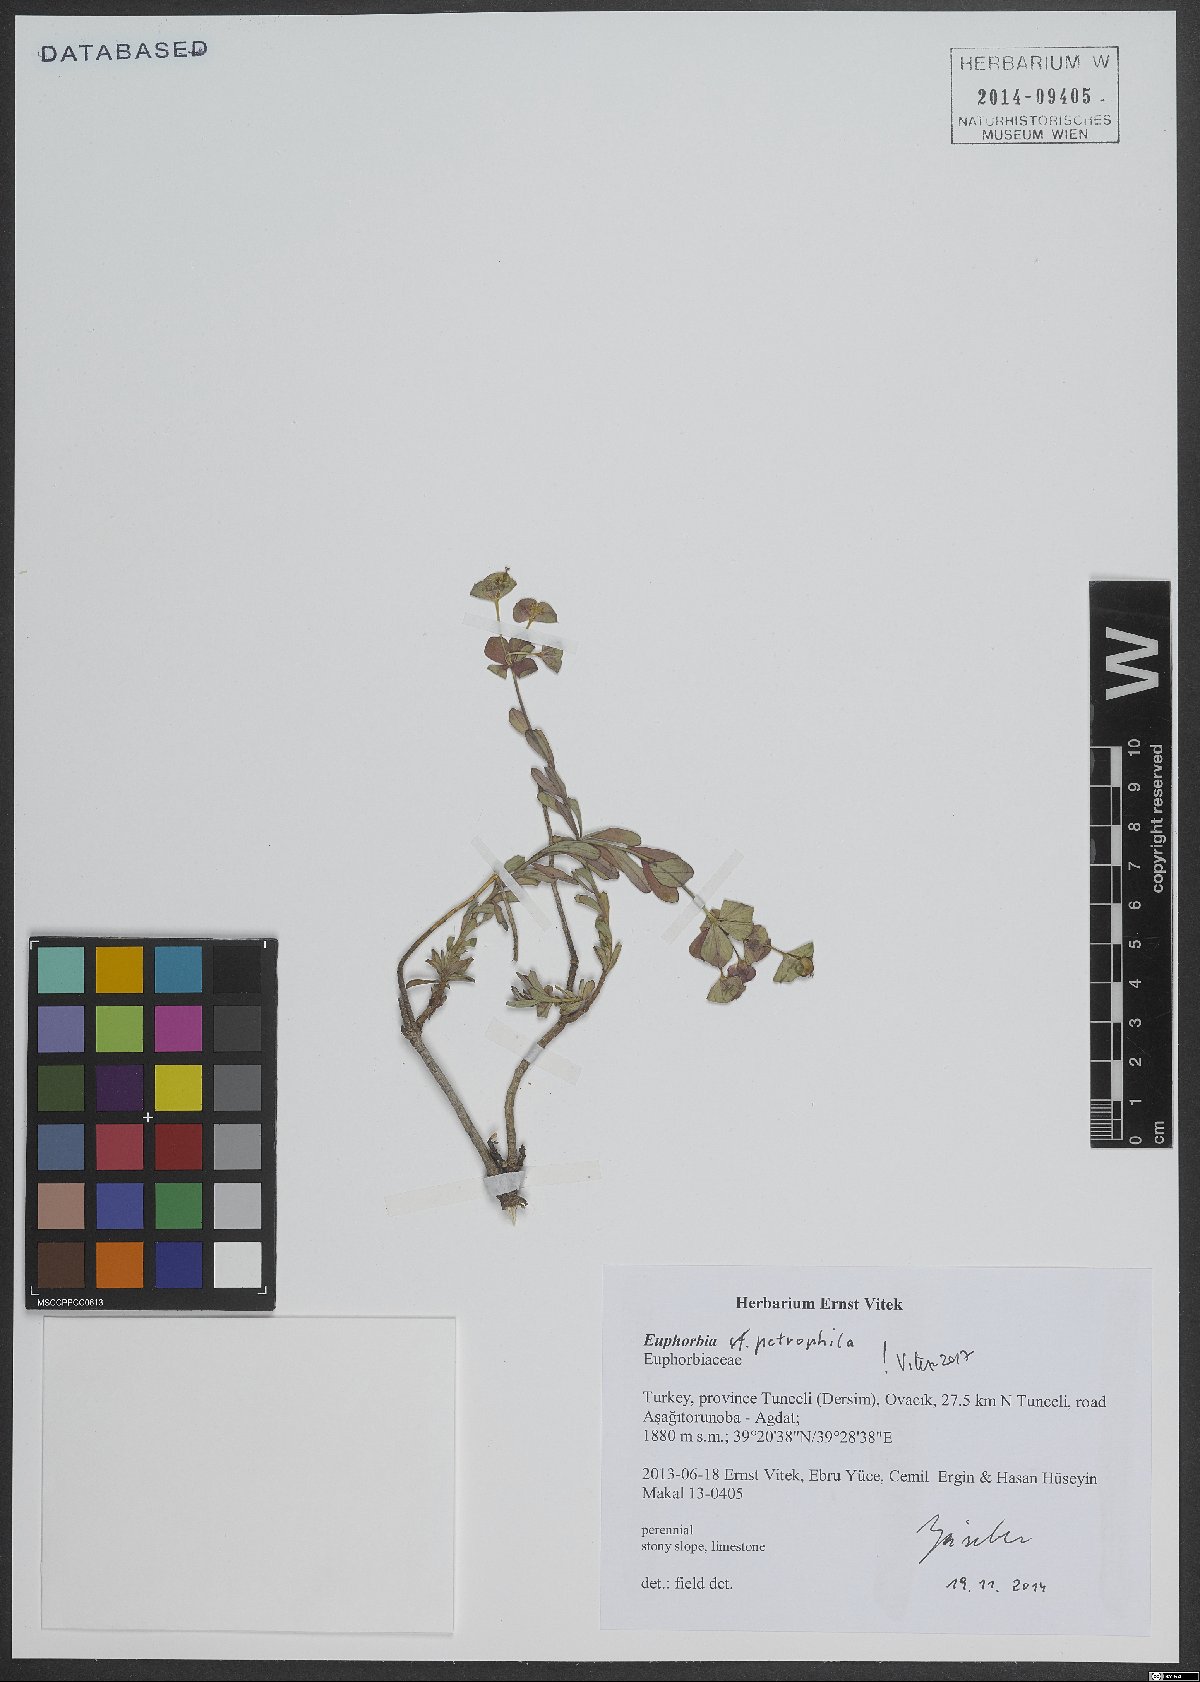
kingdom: Plantae
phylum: Tracheophyta
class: Magnoliopsida
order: Malpighiales
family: Euphorbiaceae
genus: Euphorbia
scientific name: Euphorbia petrophila
